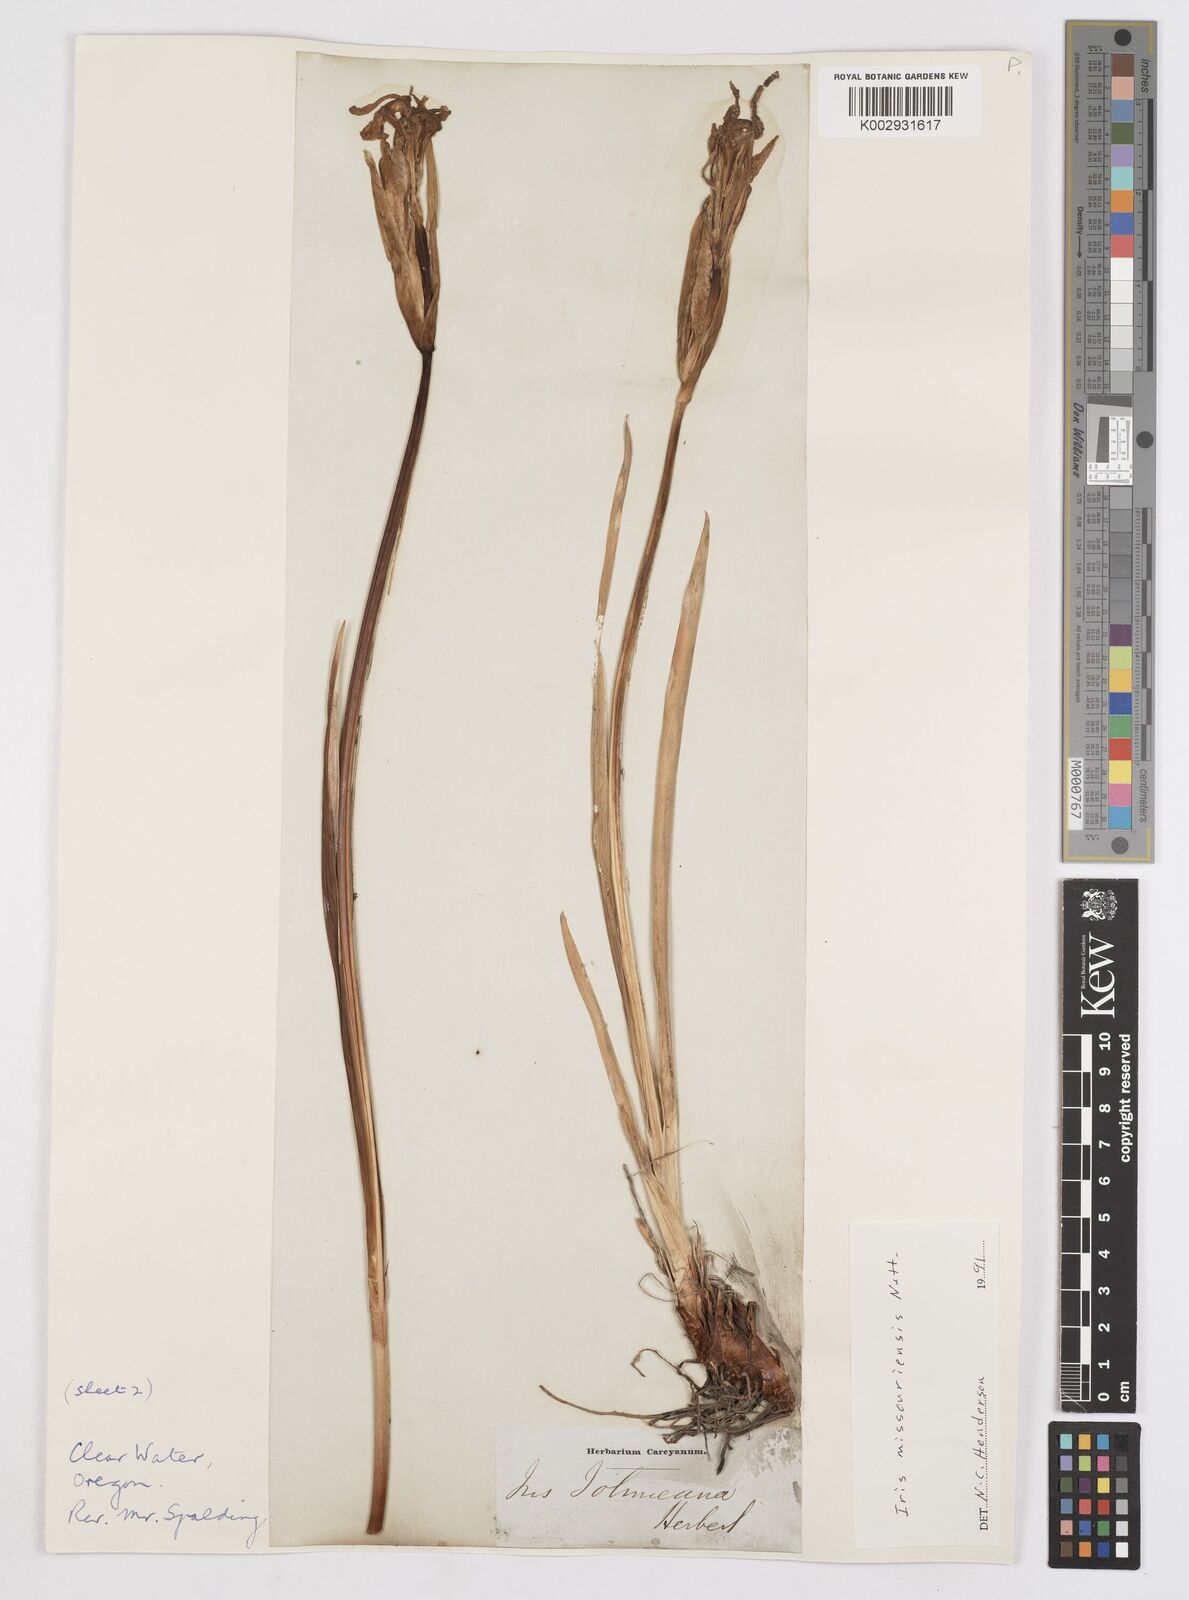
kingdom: Plantae
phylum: Tracheophyta
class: Liliopsida
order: Asparagales
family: Iridaceae
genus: Iris
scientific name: Iris missouriensis
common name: Rocky mountain iris
